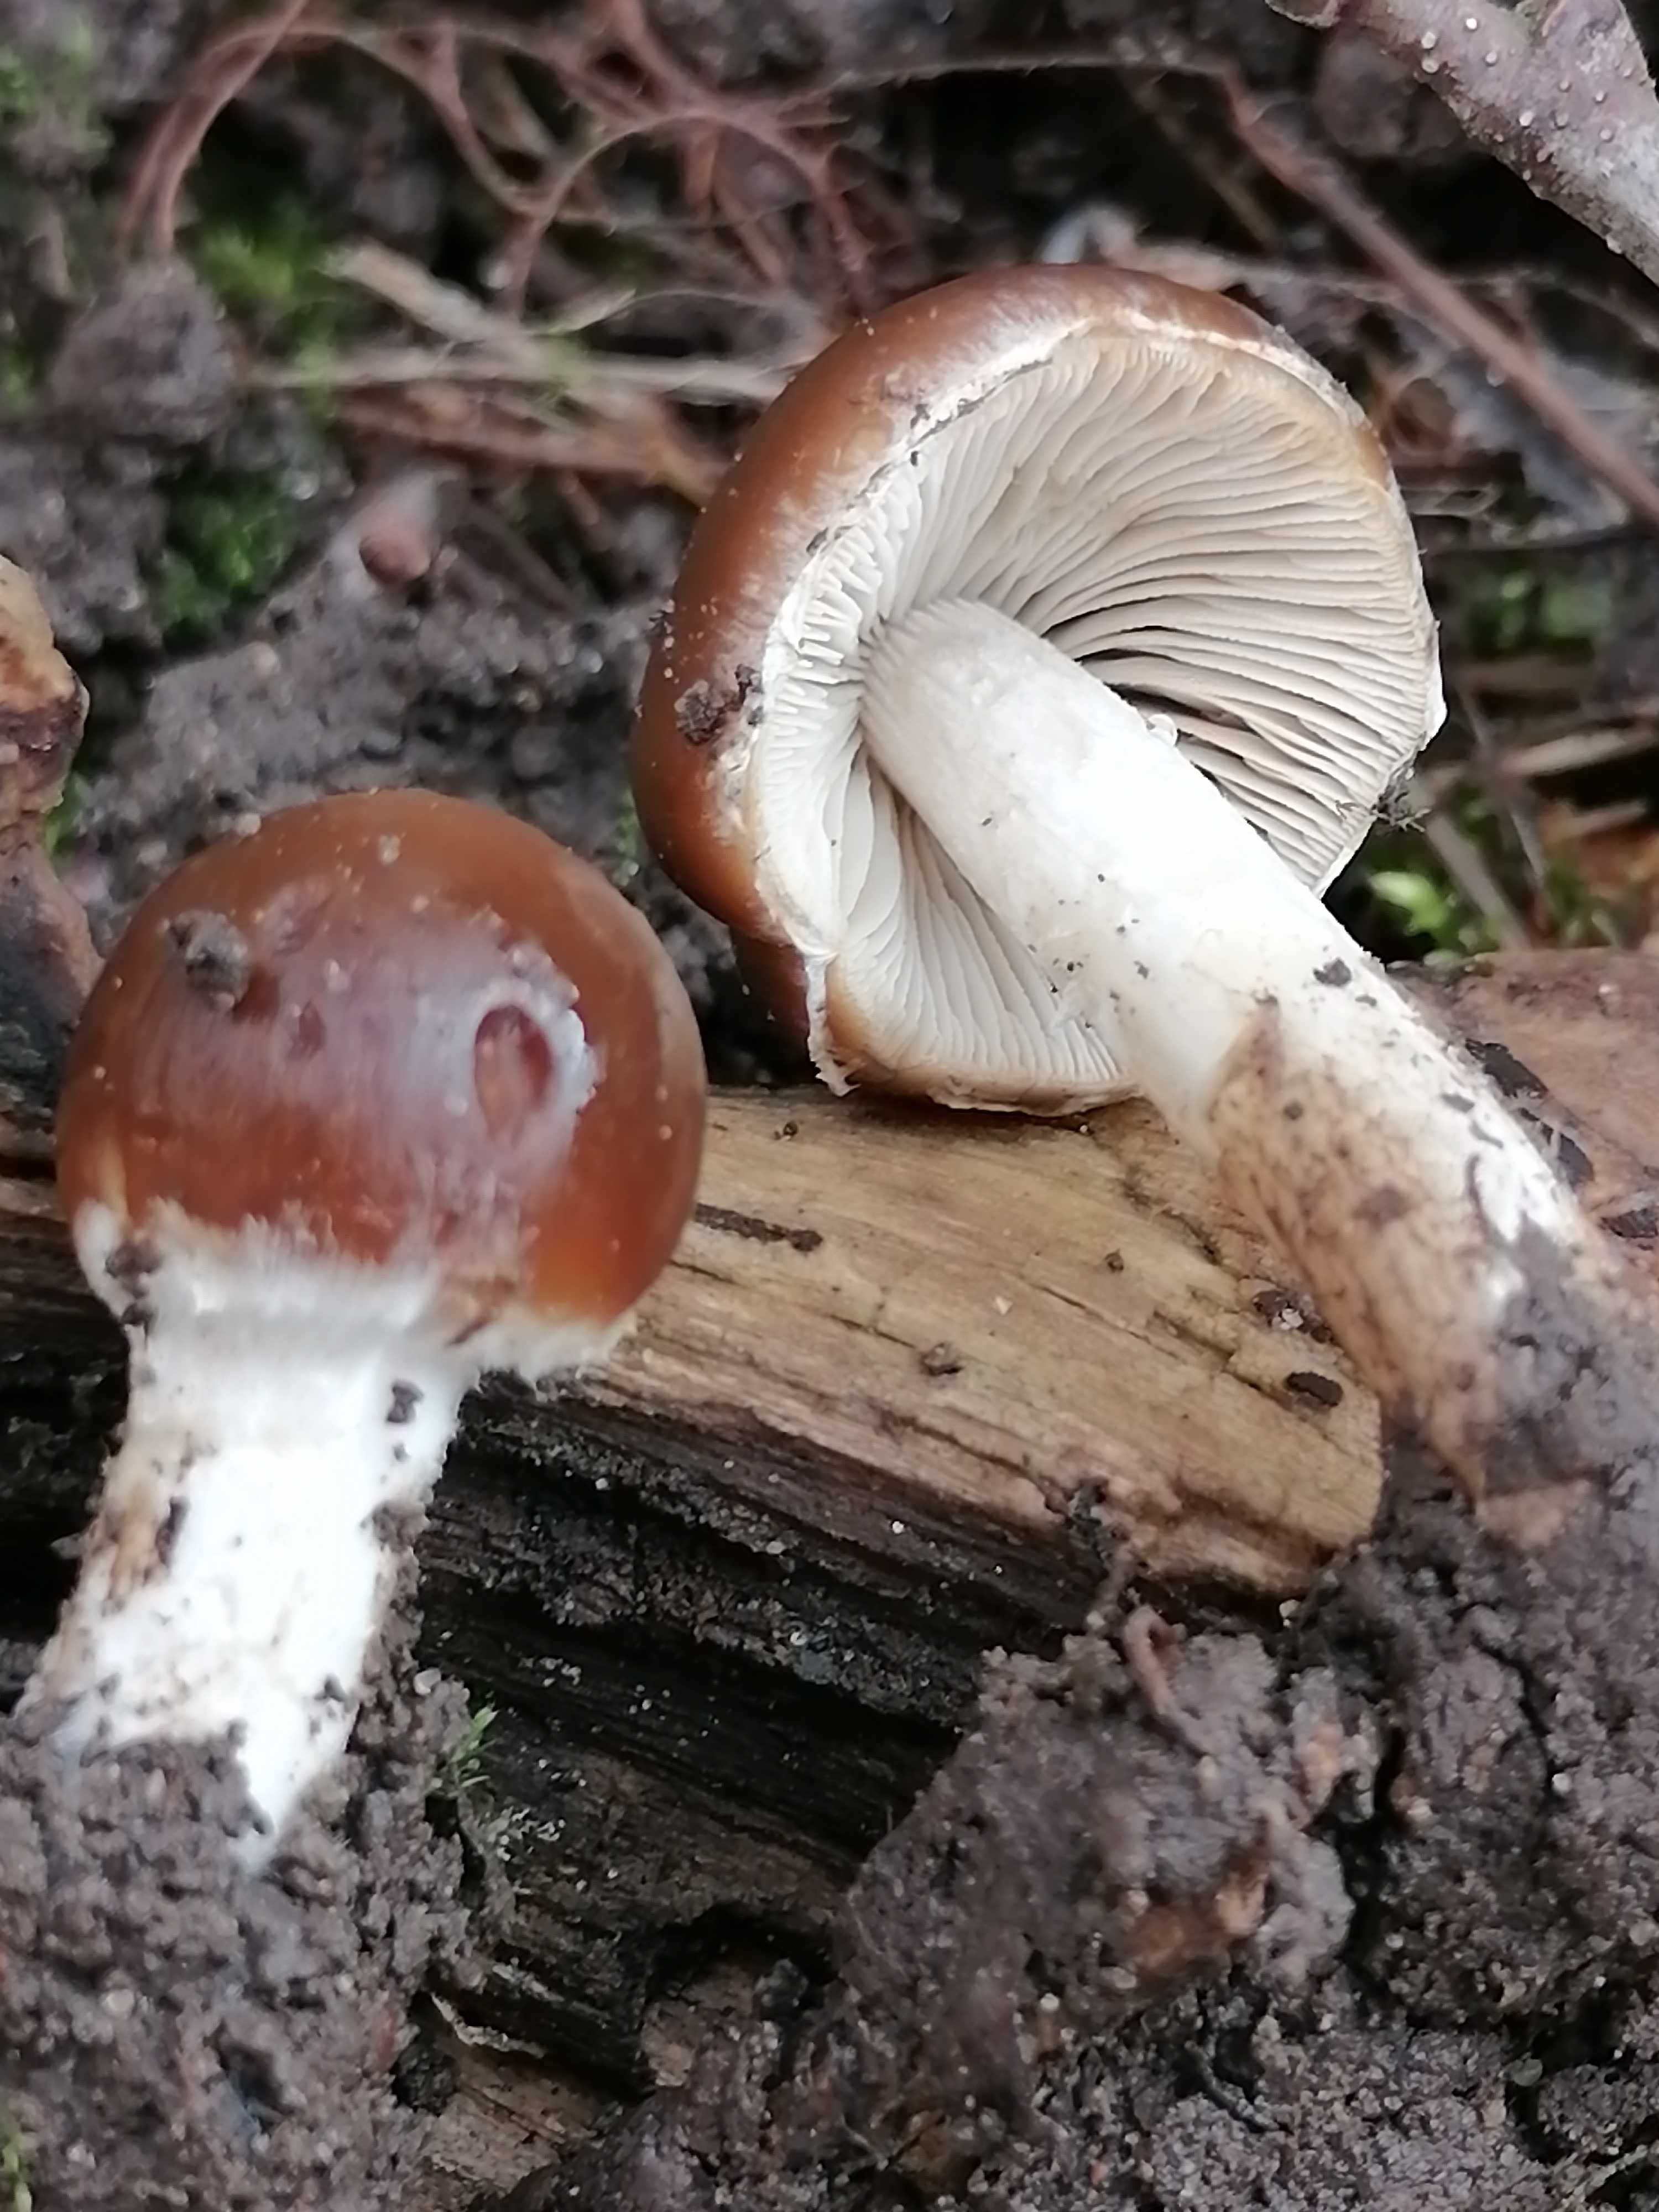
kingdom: Fungi
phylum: Basidiomycota
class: Agaricomycetes
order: Agaricales
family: Psathyrellaceae
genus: Psathyrella
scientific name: Psathyrella
